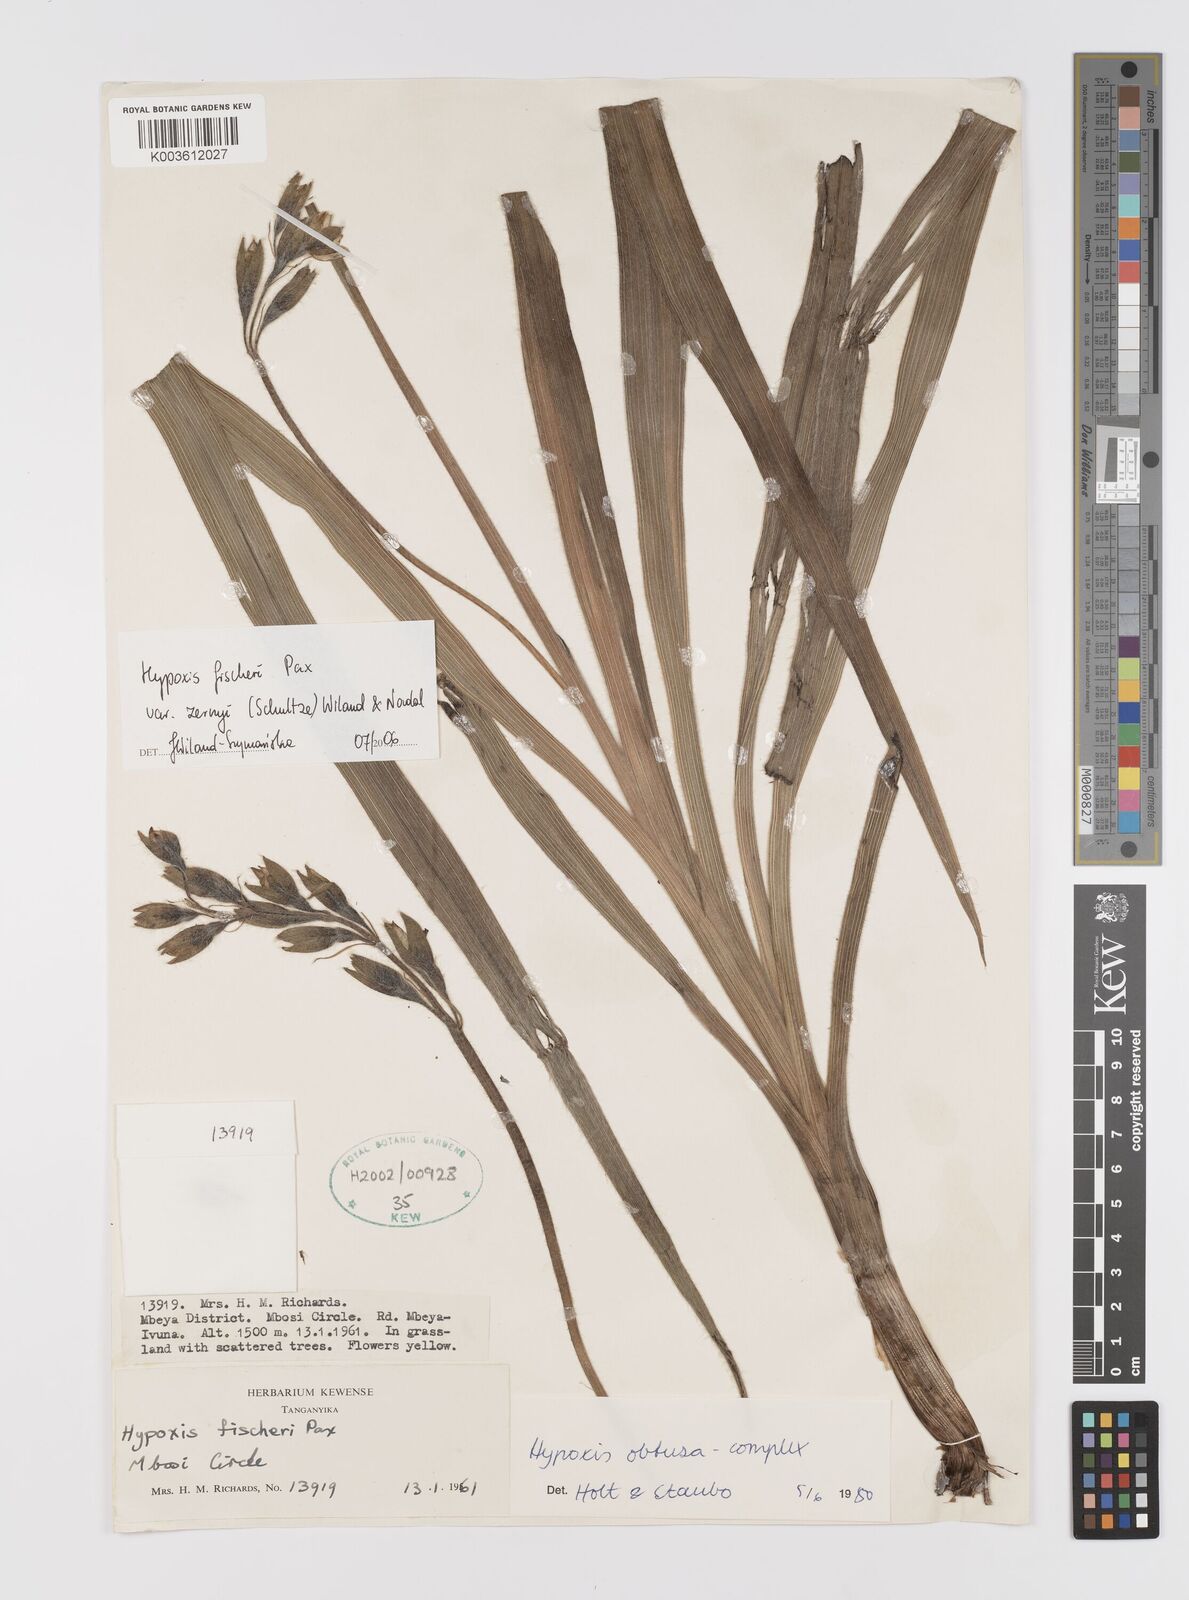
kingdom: Plantae
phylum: Tracheophyta
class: Liliopsida
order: Asparagales
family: Hypoxidaceae
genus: Hypoxis
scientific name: Hypoxis fischeri
